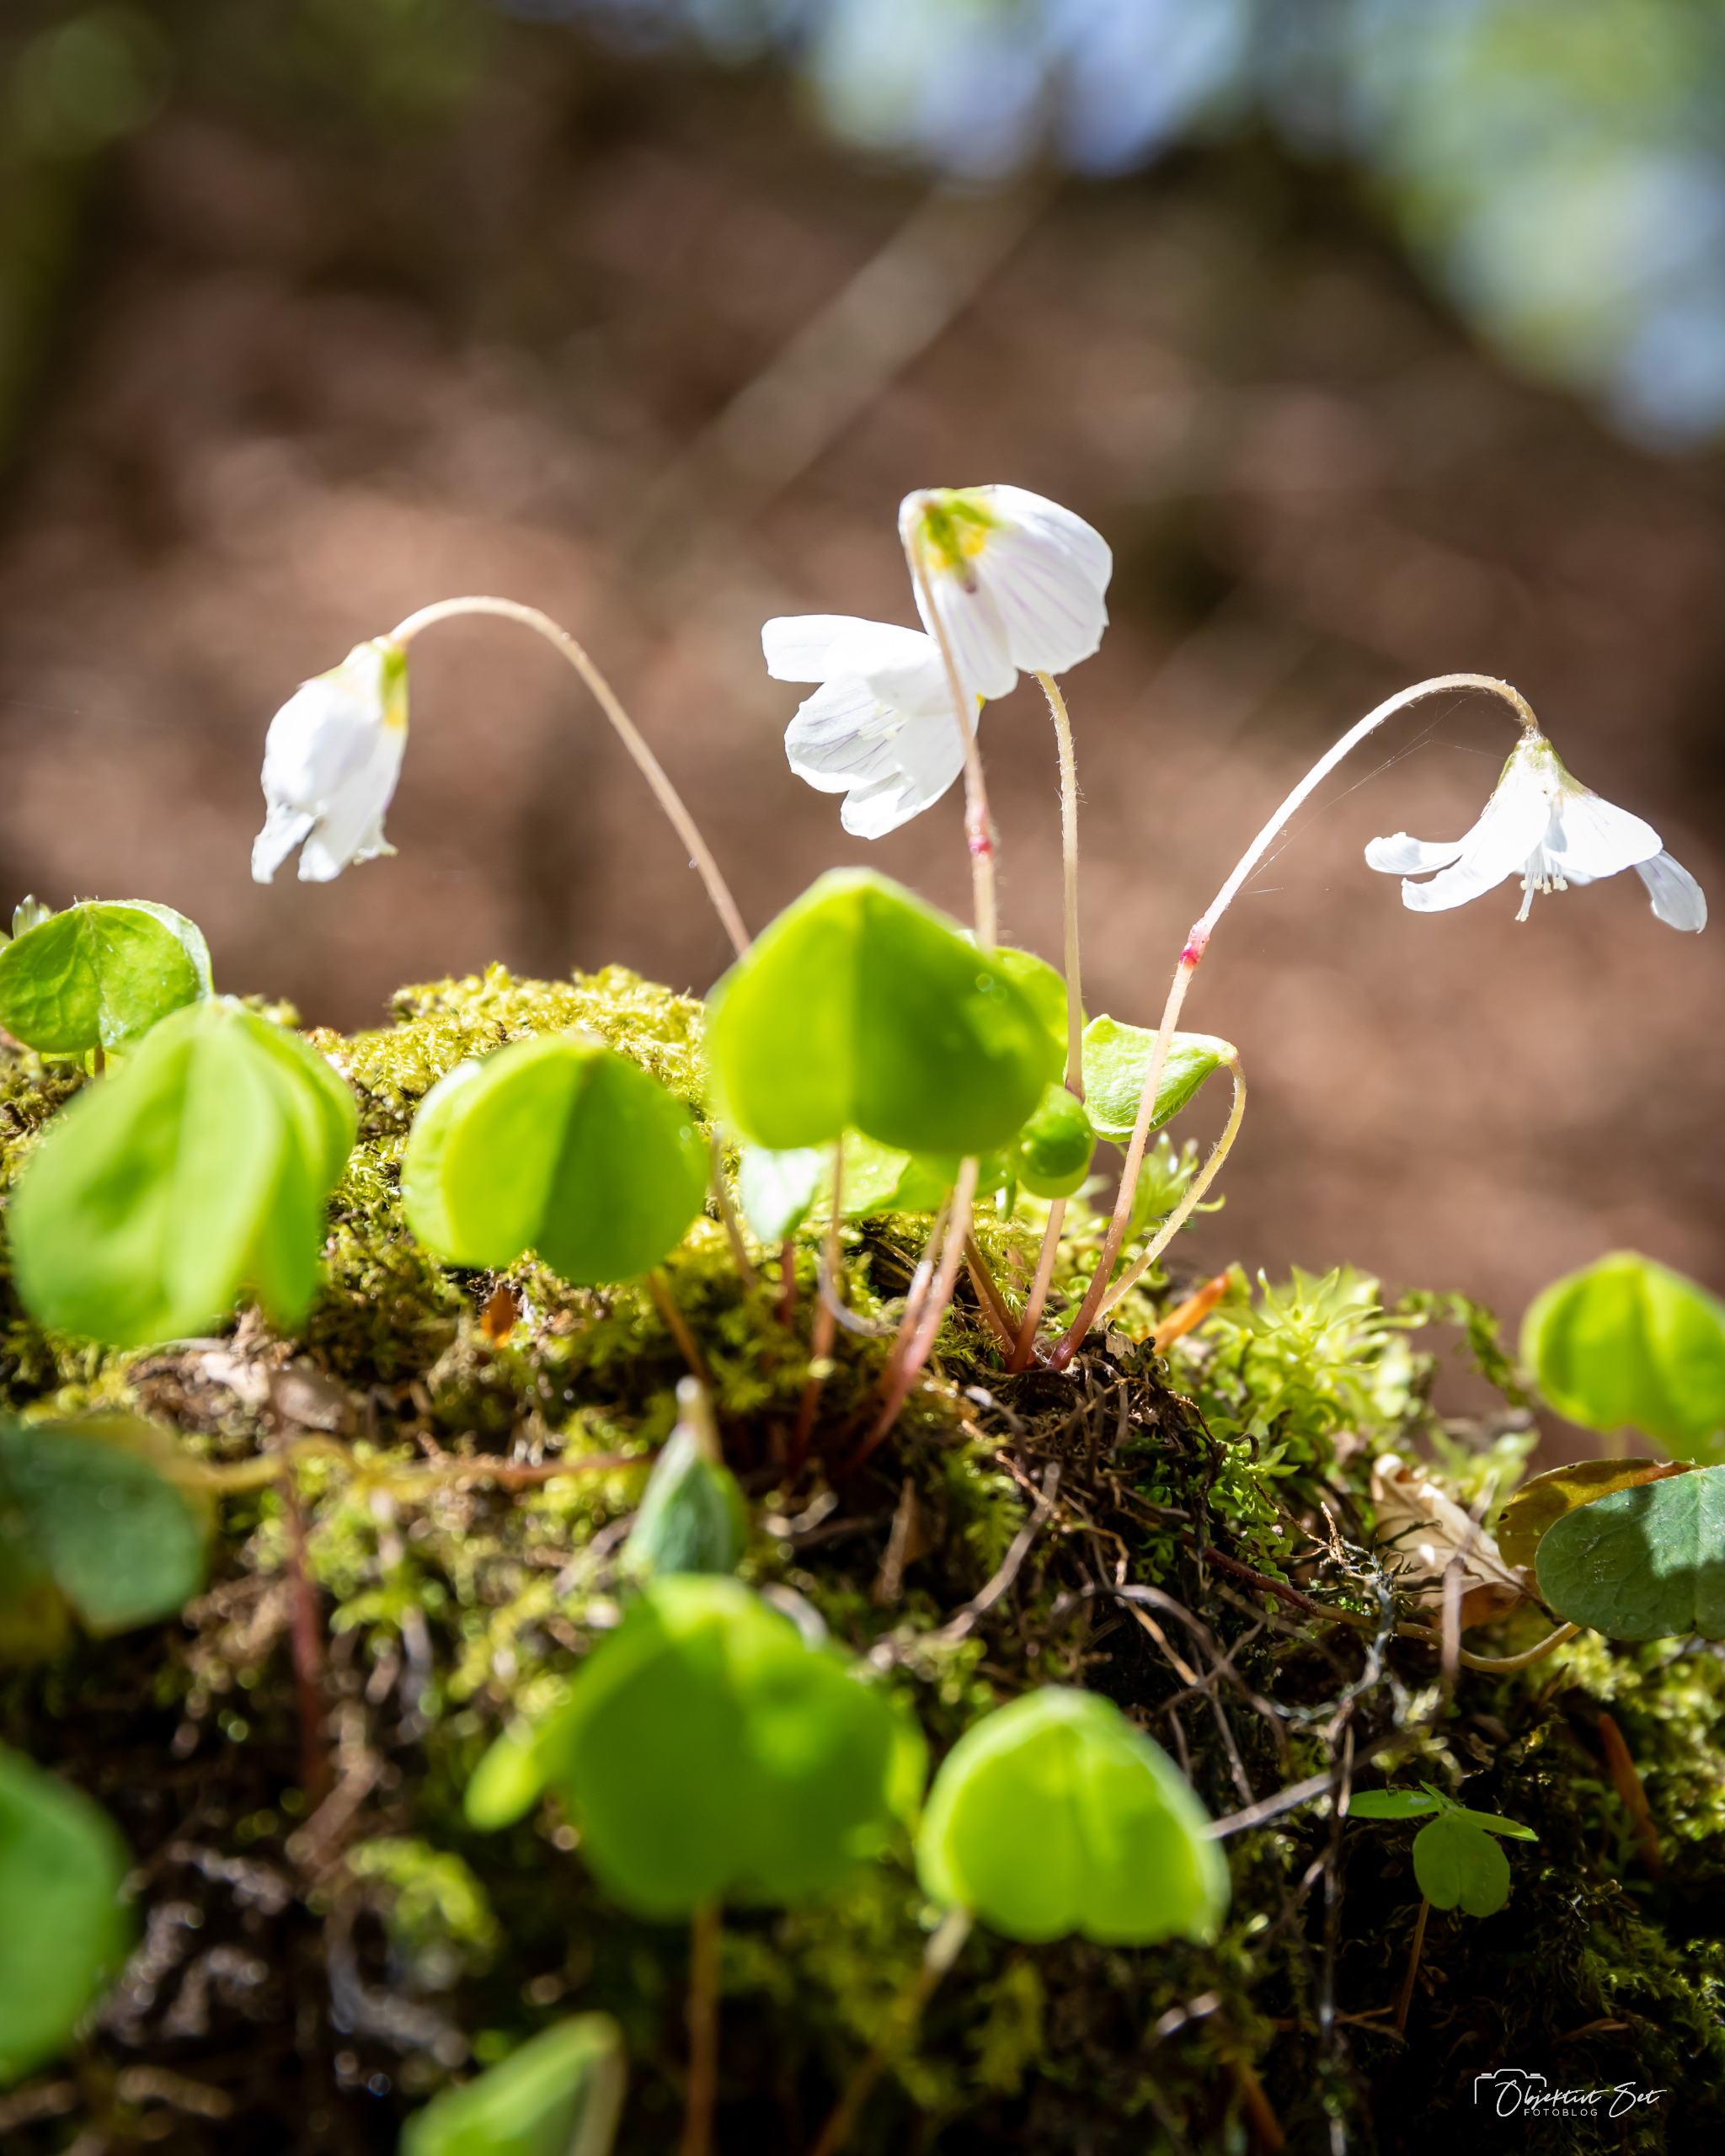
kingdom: Plantae
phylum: Tracheophyta
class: Magnoliopsida
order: Oxalidales
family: Oxalidaceae
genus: Oxalis
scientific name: Oxalis acetosella
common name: Skovsyre
